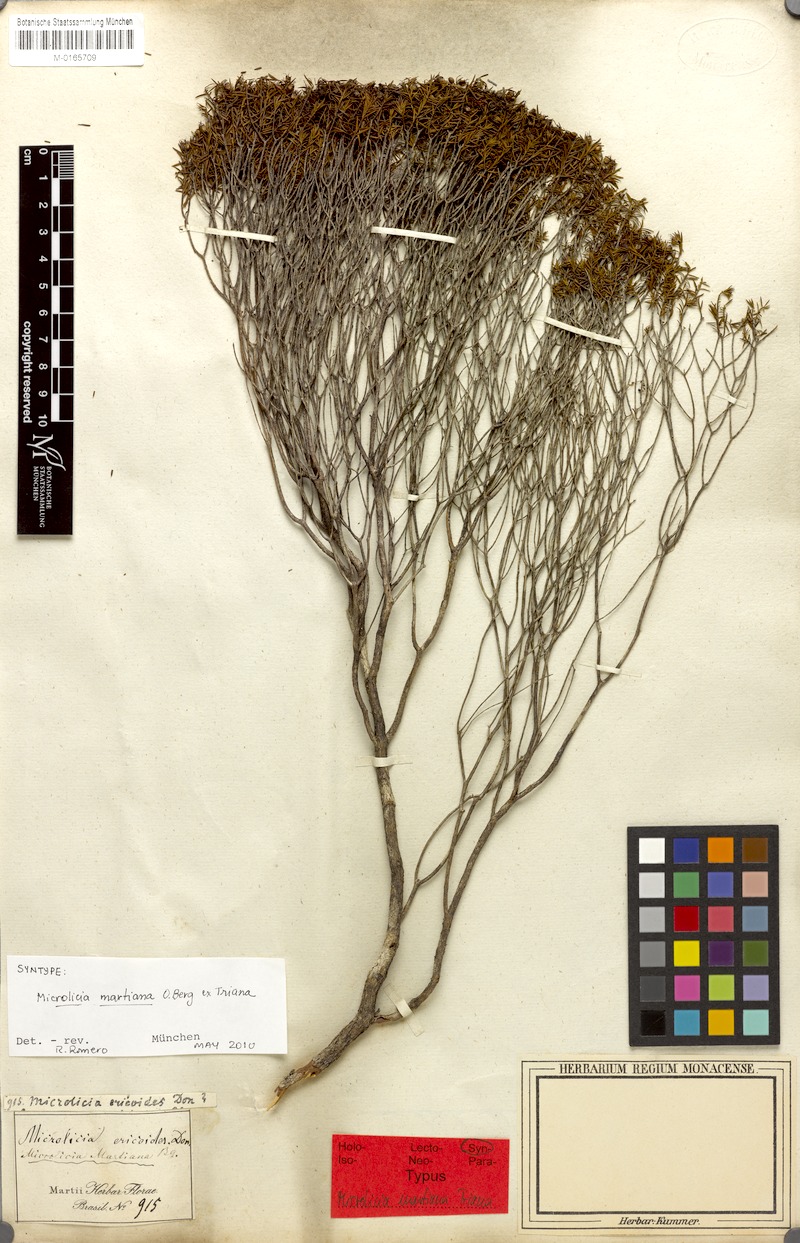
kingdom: Plantae
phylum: Tracheophyta
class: Magnoliopsida
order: Myrtales
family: Melastomataceae
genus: Microlicia
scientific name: Microlicia martiana
